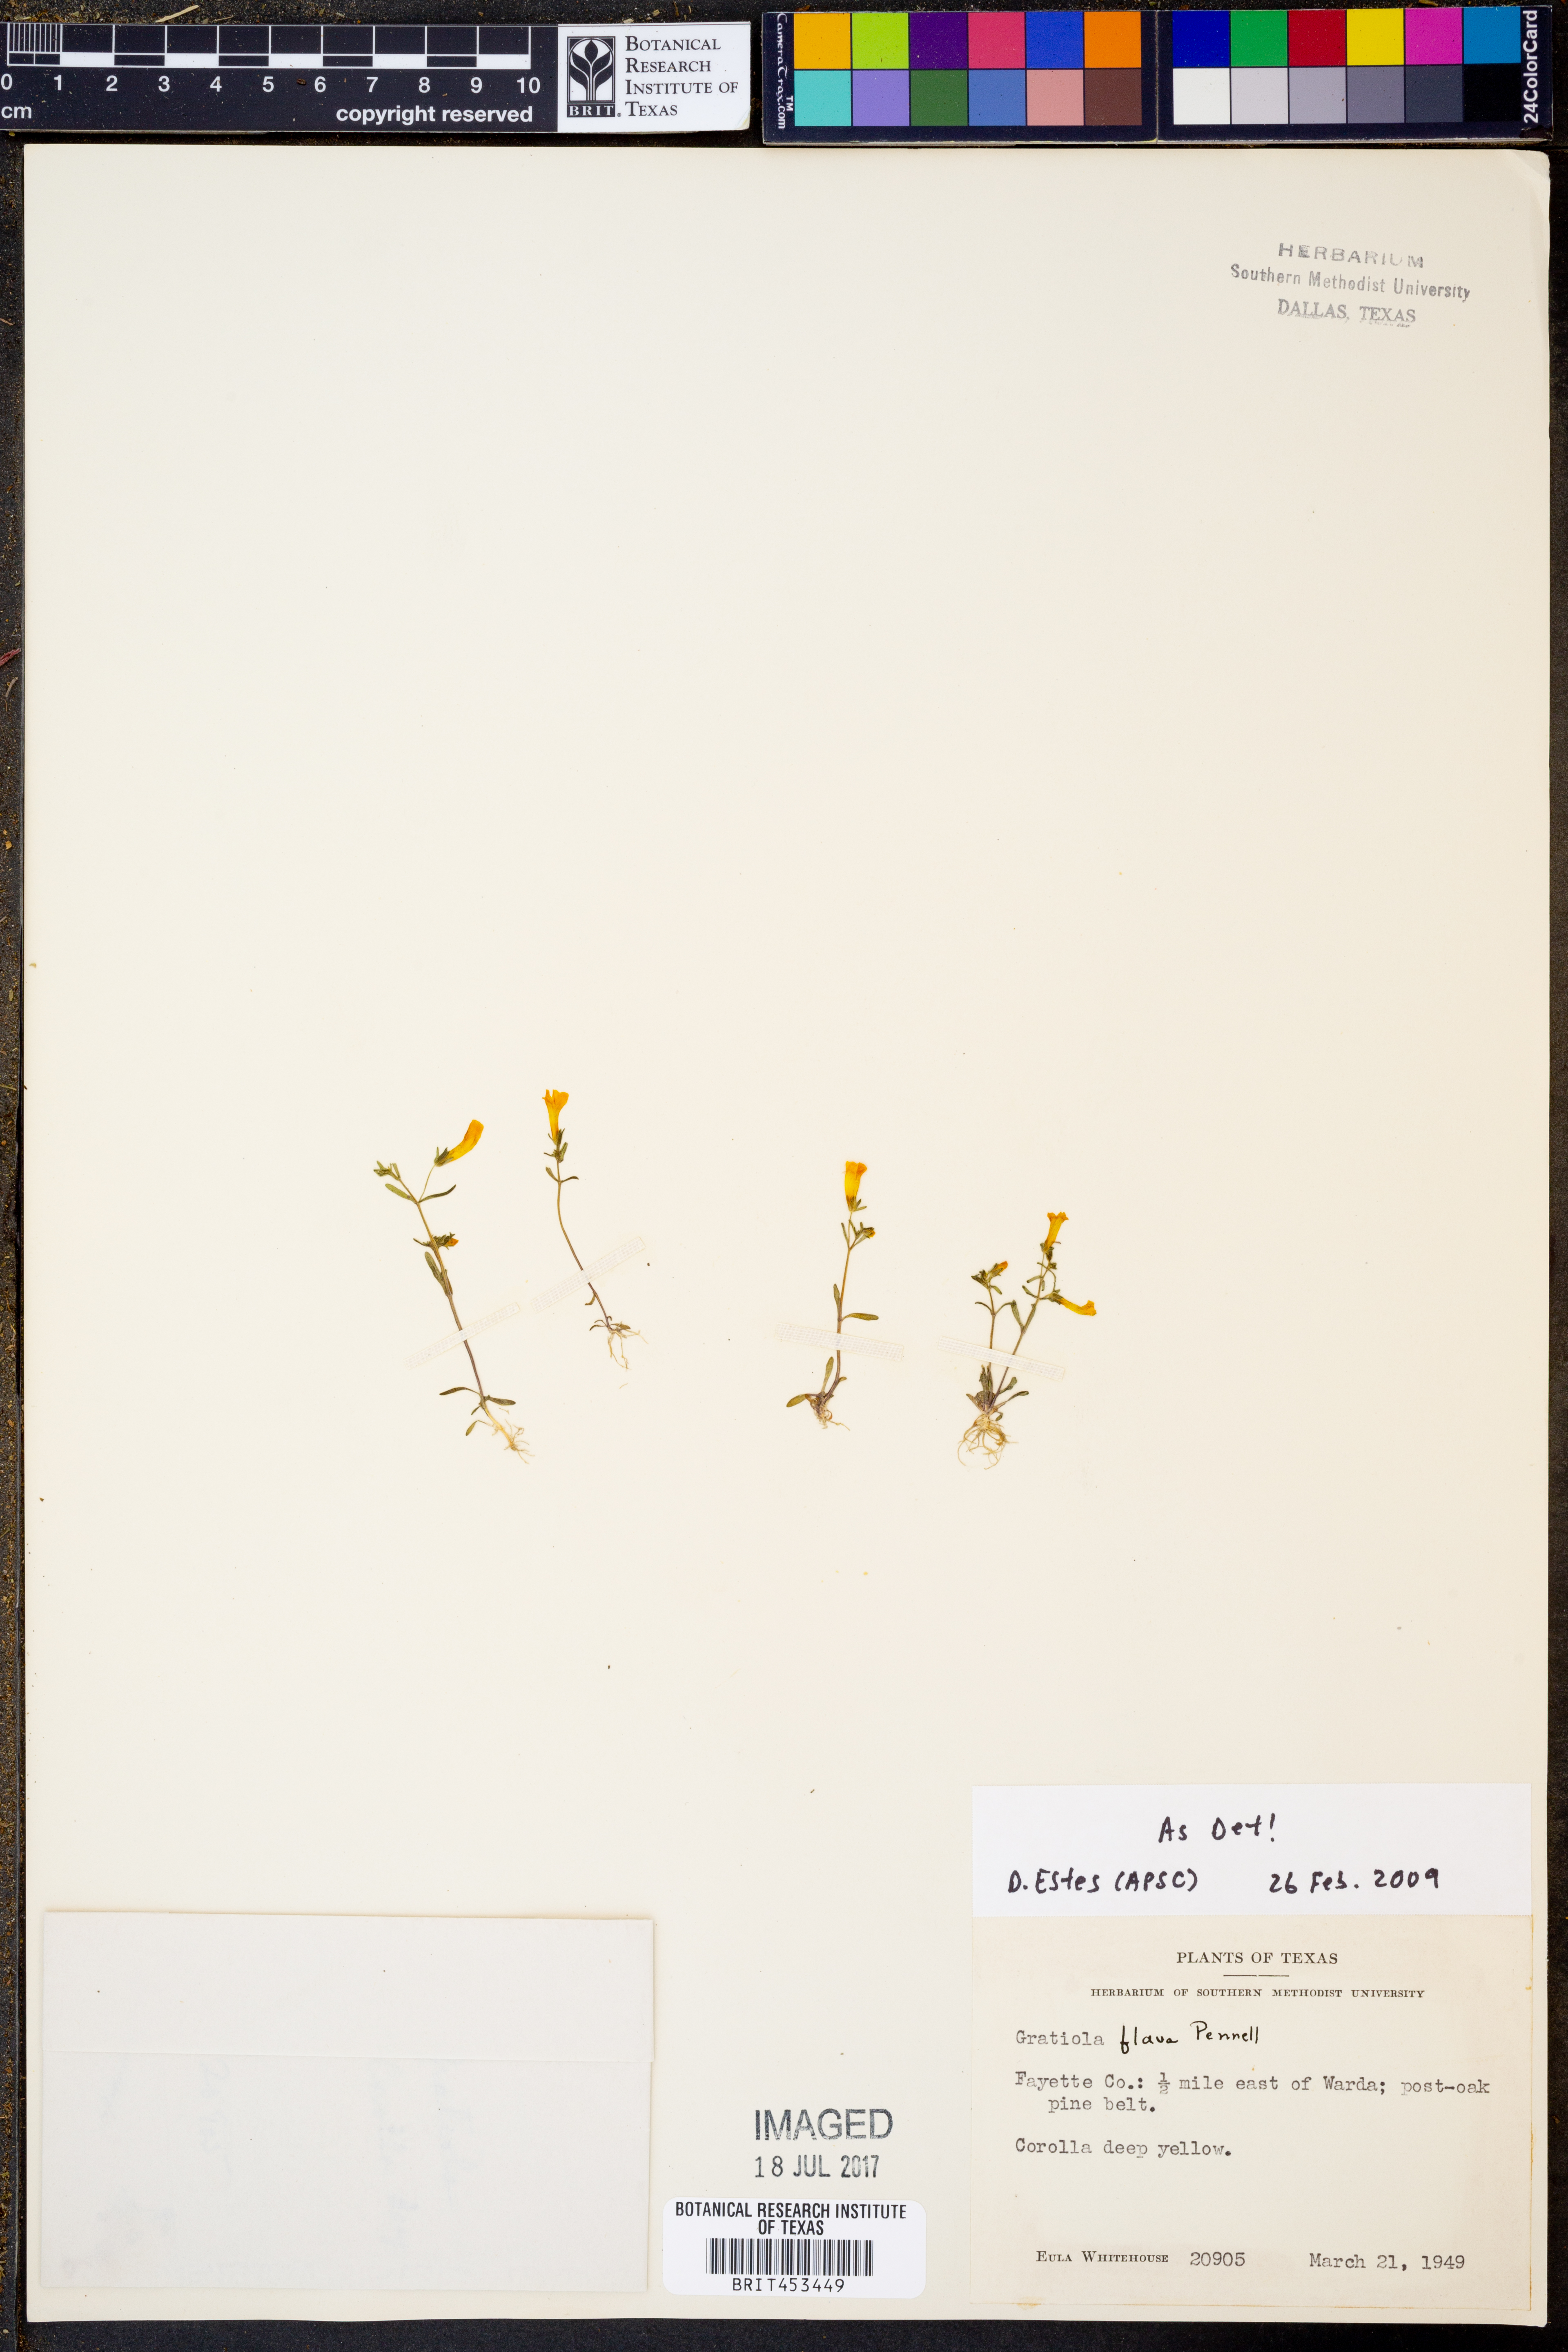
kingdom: Plantae
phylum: Tracheophyta
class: Magnoliopsida
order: Lamiales
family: Plantaginaceae
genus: Gratiola
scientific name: Gratiola flava
